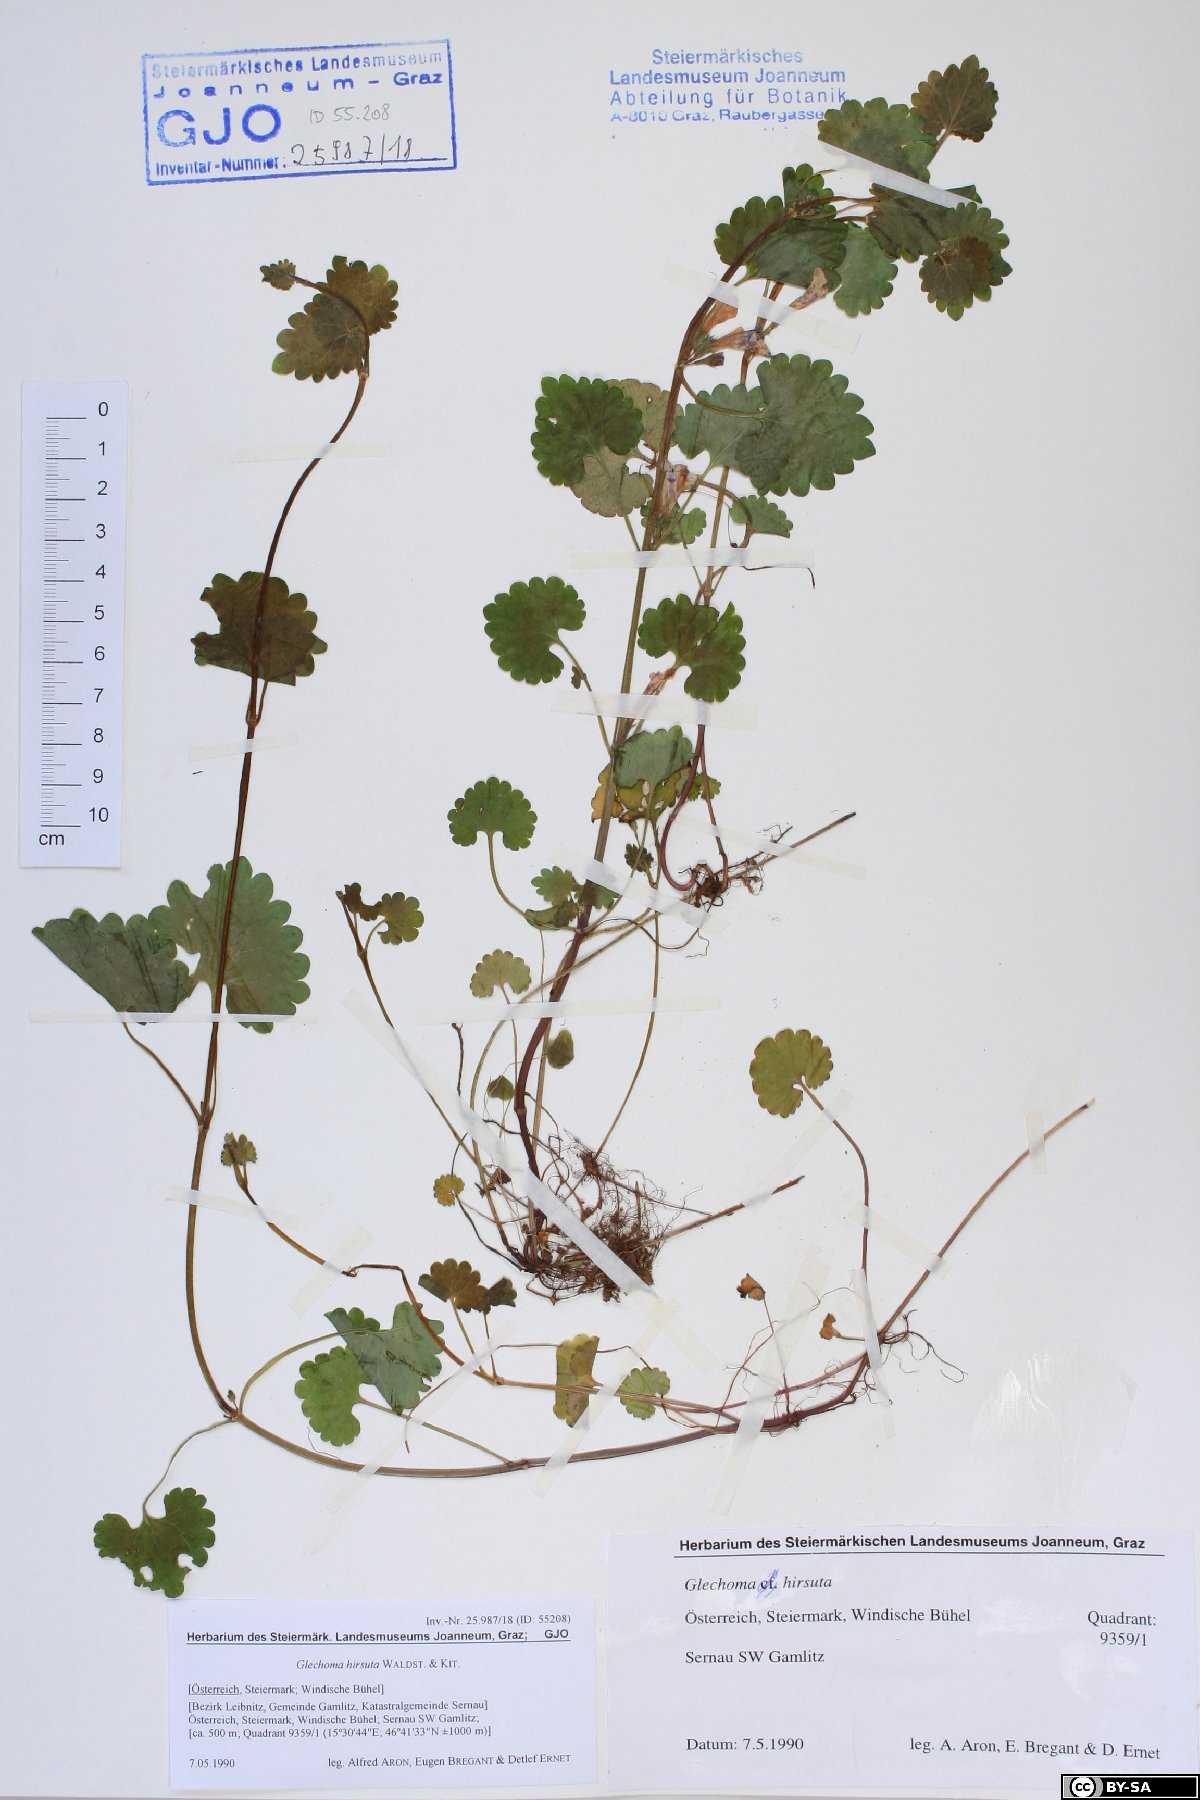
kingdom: Plantae
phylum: Tracheophyta
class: Magnoliopsida
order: Lamiales
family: Lamiaceae
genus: Glechoma
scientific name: Glechoma hirsuta
